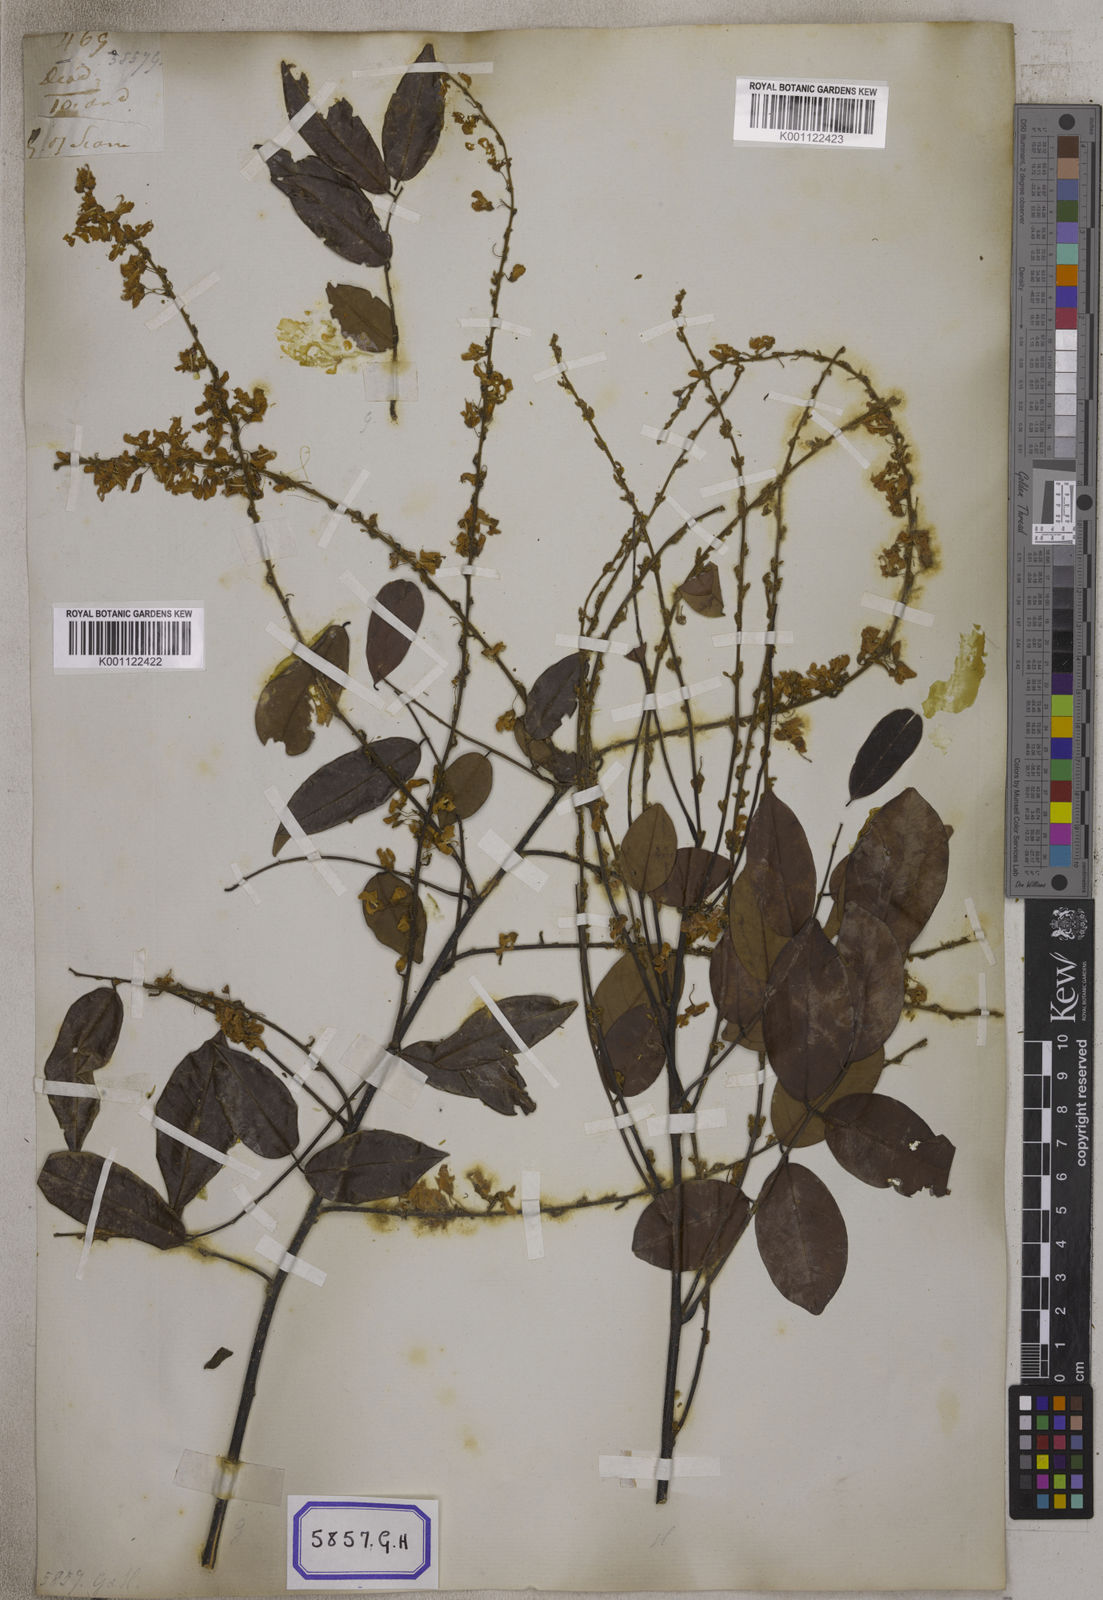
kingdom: Plantae
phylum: Tracheophyta
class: Magnoliopsida
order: Fabales
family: Fabaceae
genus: Brachypterum
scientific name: Brachypterum scandens
